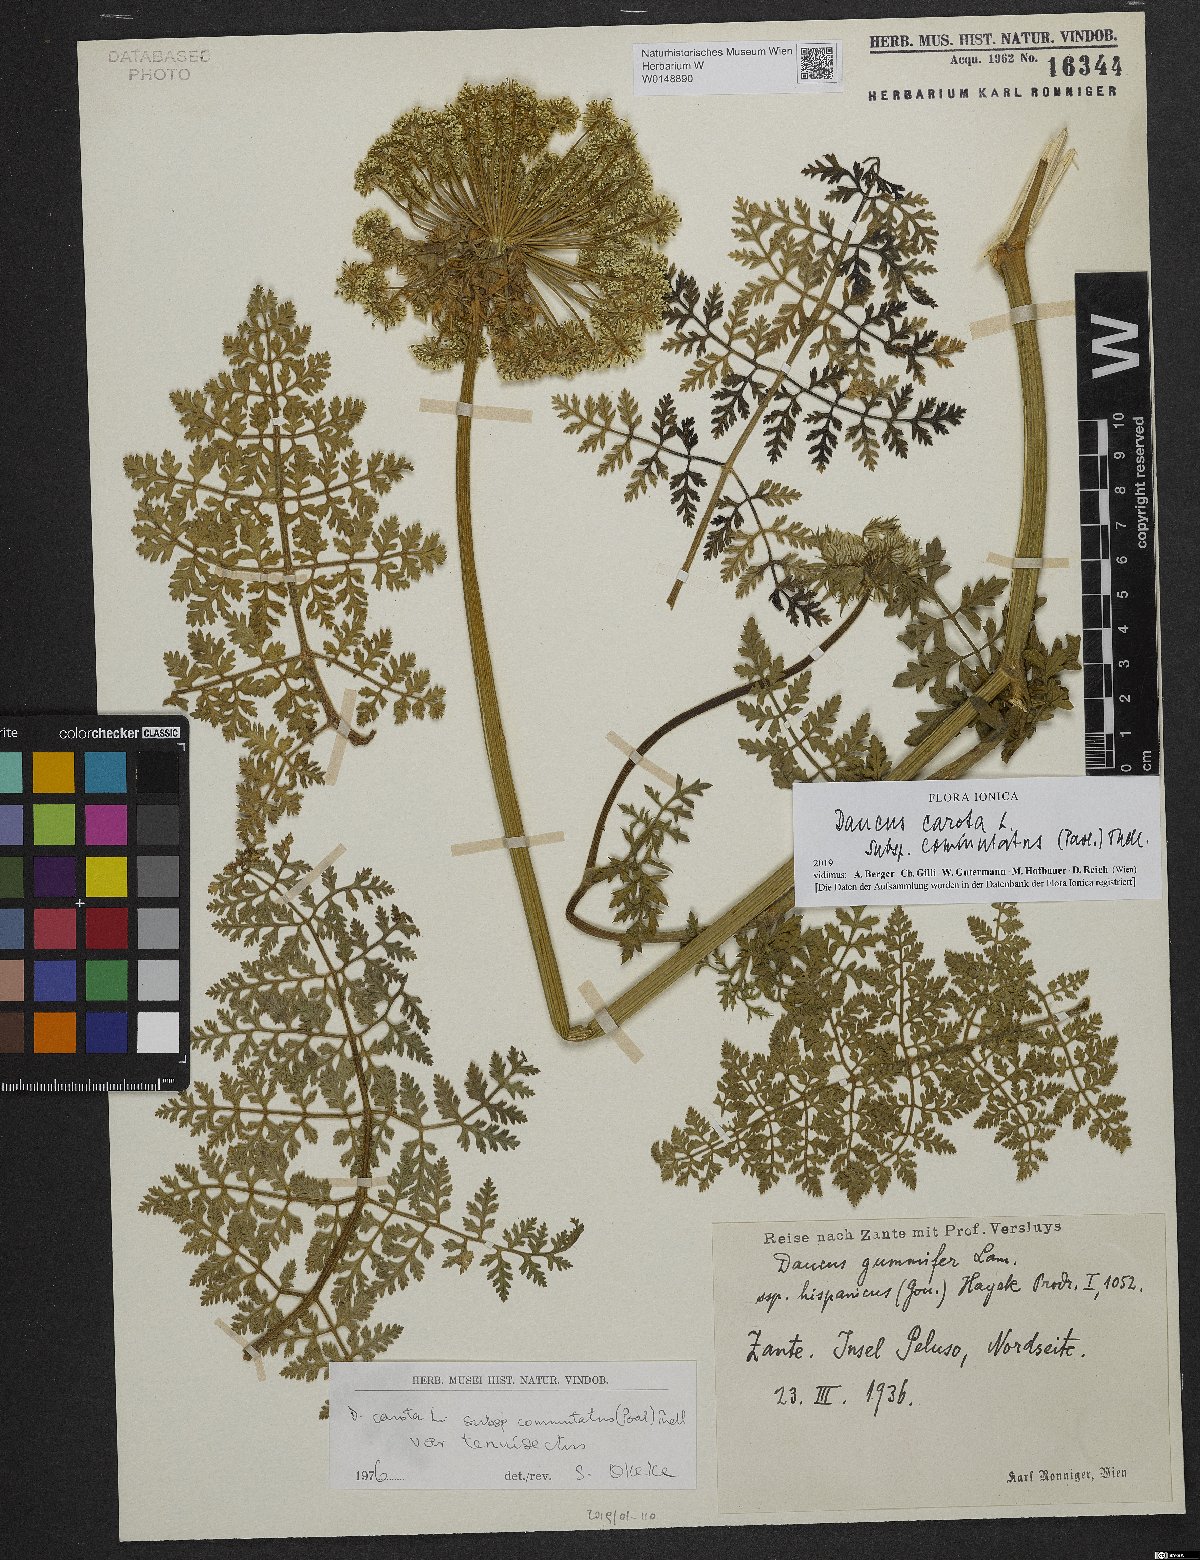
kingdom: Plantae
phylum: Tracheophyta
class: Magnoliopsida
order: Apiales
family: Apiaceae
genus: Daucus
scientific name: Daucus carota
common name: Wild carrot
